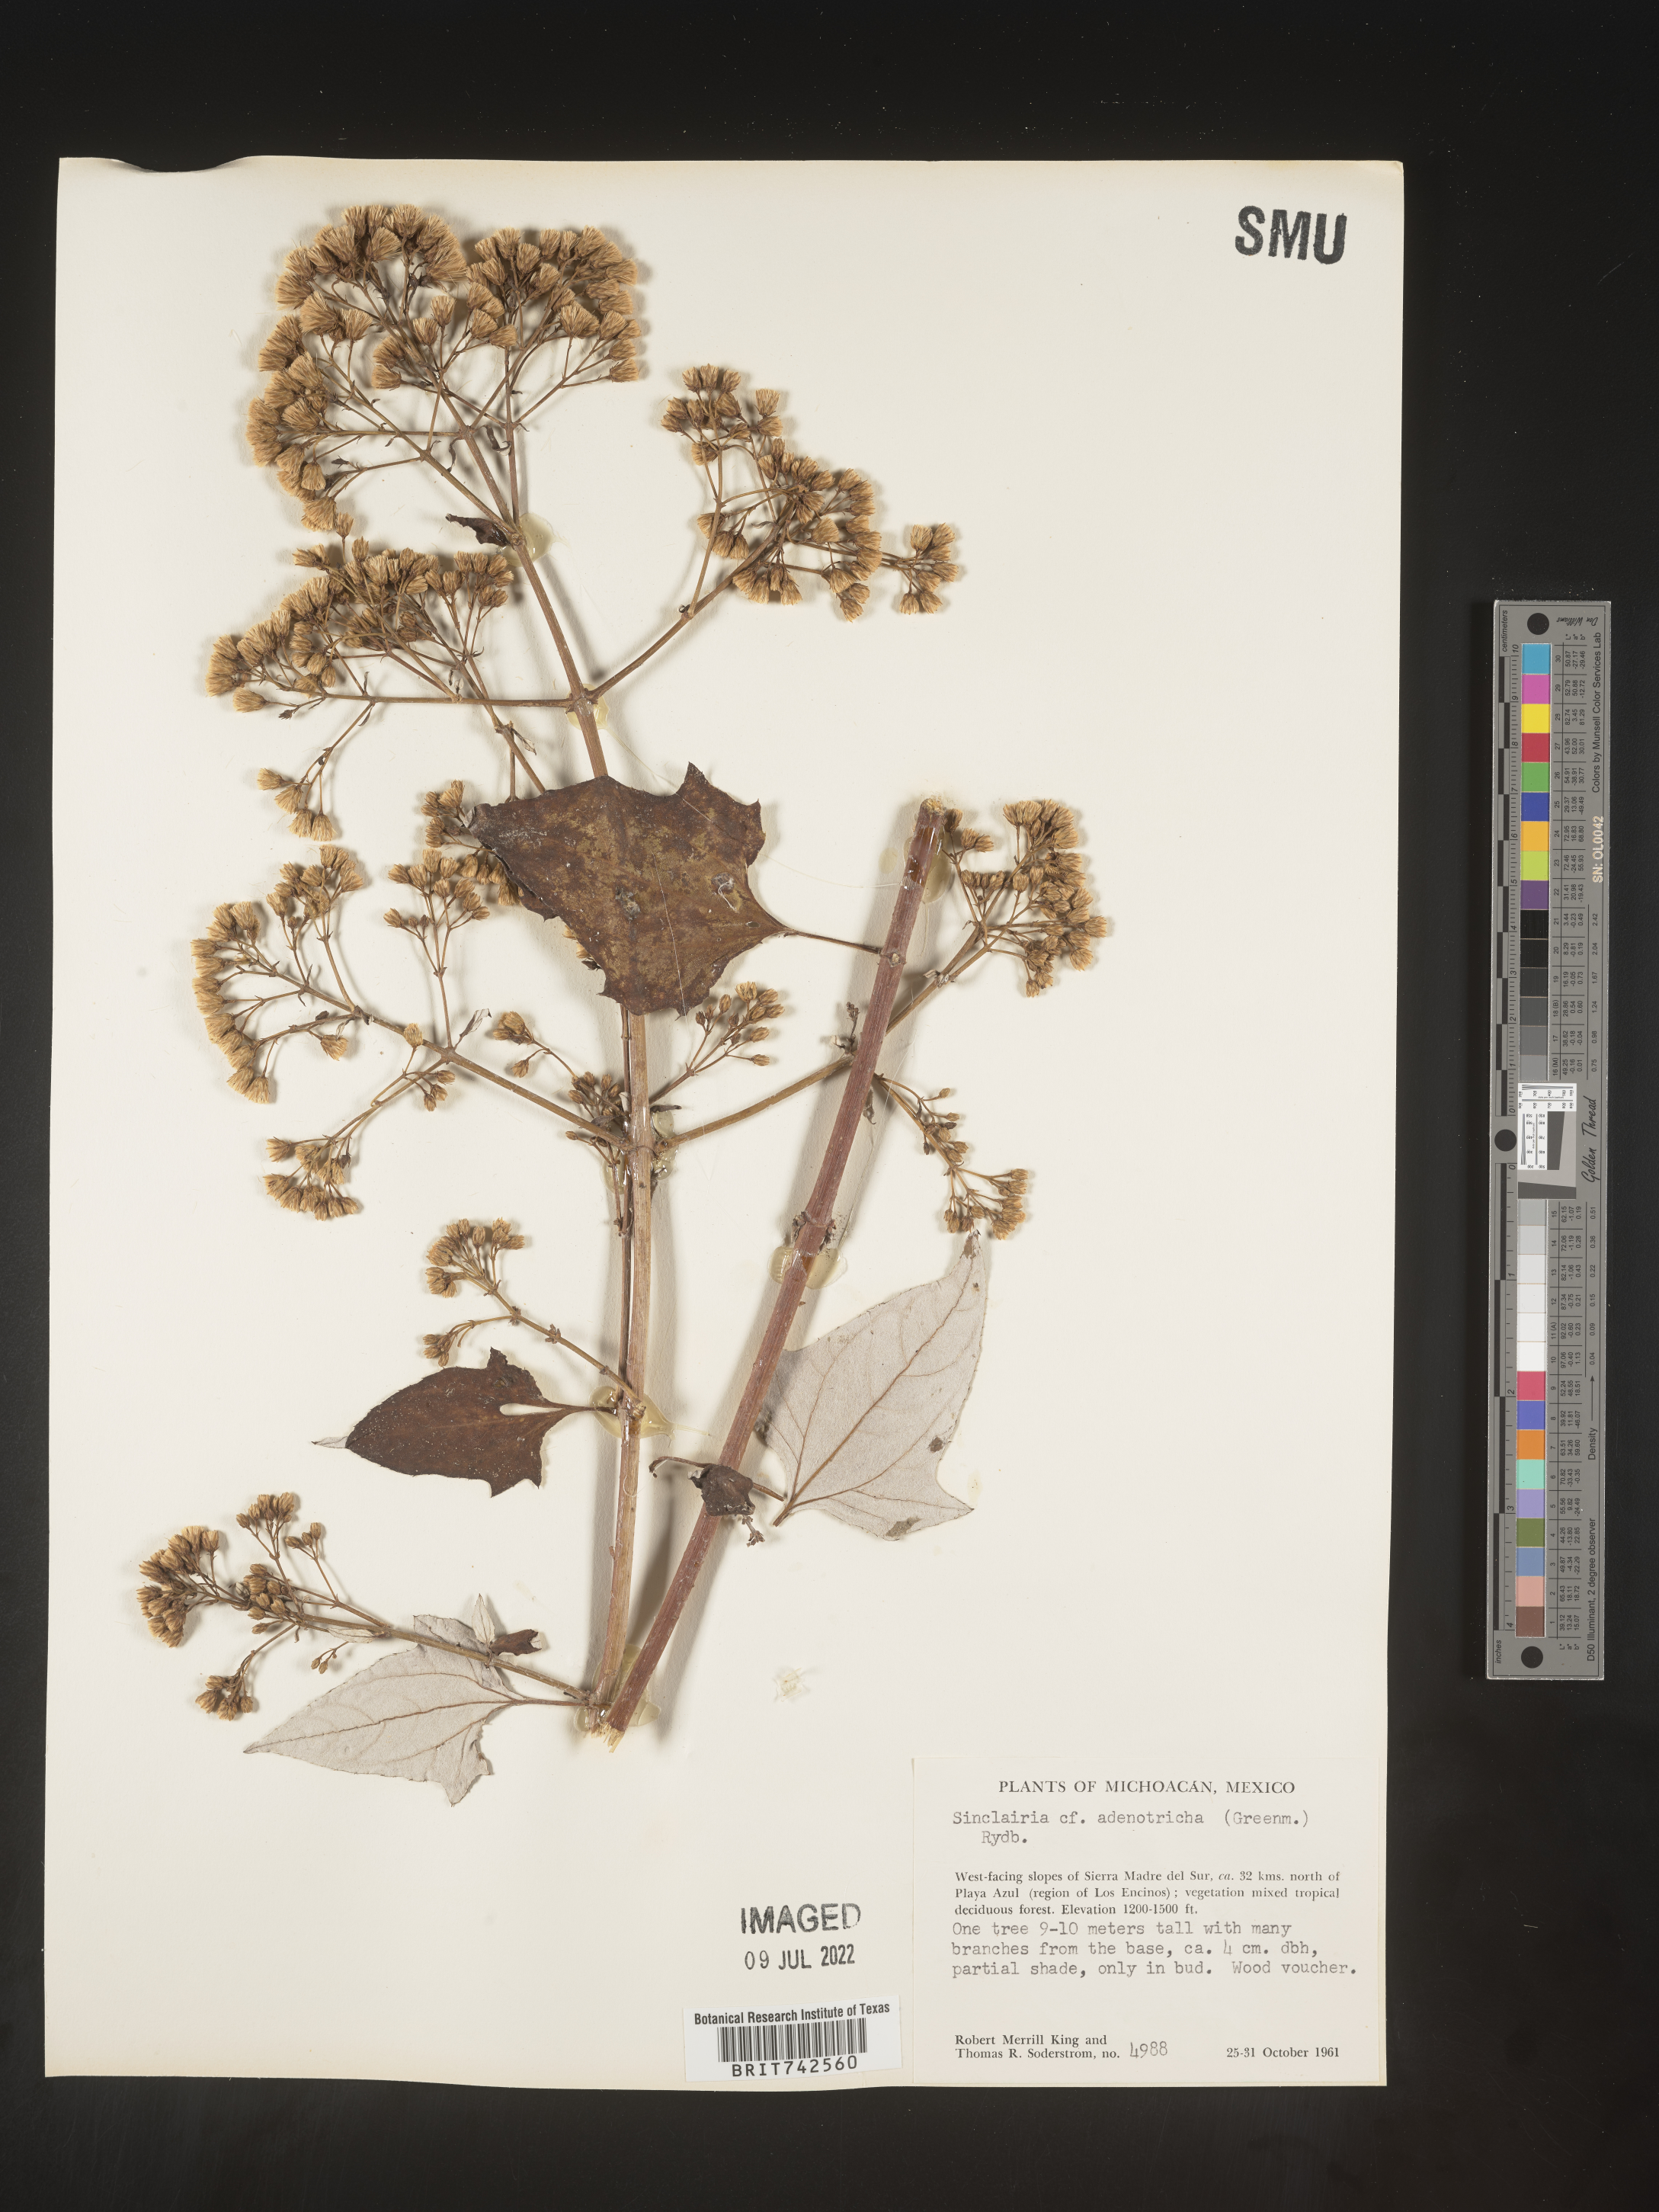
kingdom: Plantae
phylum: Tracheophyta
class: Magnoliopsida
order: Asterales
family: Asteraceae
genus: Sinclairia
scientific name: Sinclairia
